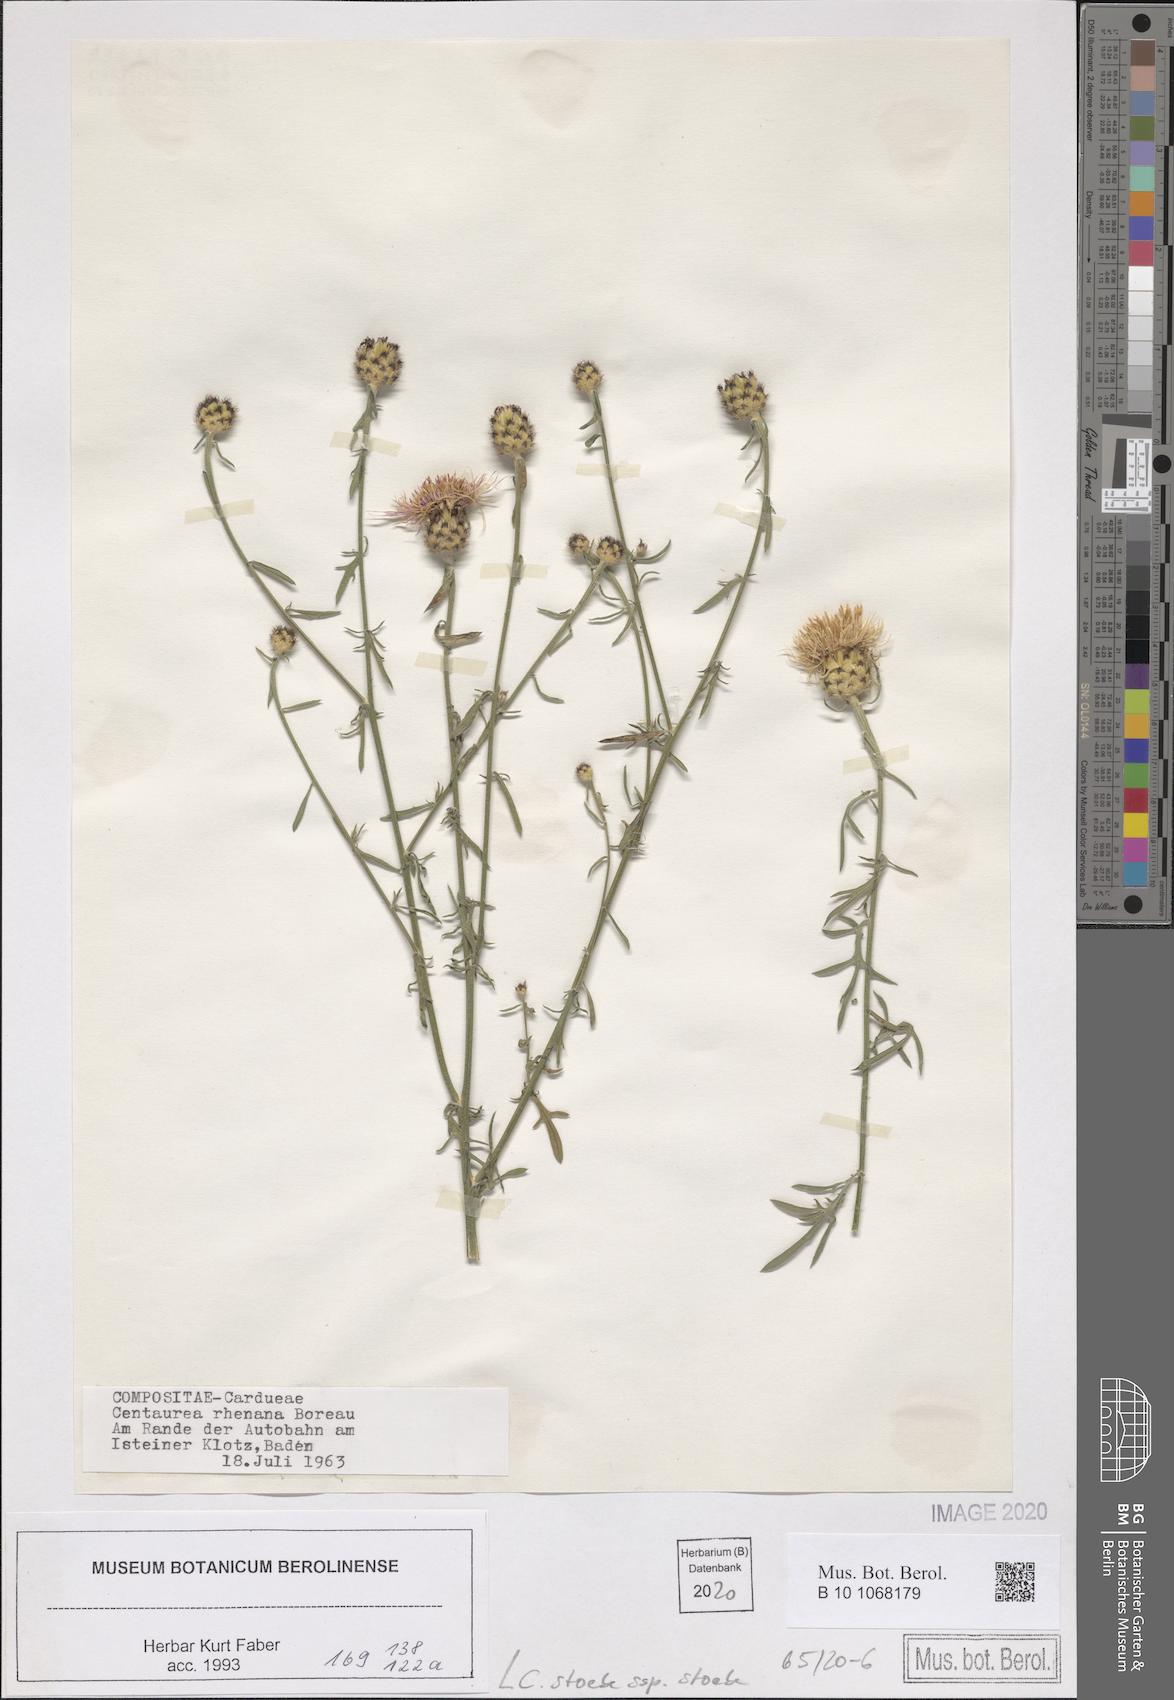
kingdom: Plantae
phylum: Tracheophyta
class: Magnoliopsida
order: Asterales
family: Asteraceae
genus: Centaurea
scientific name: Centaurea stoebe
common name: Spotted knapweed
